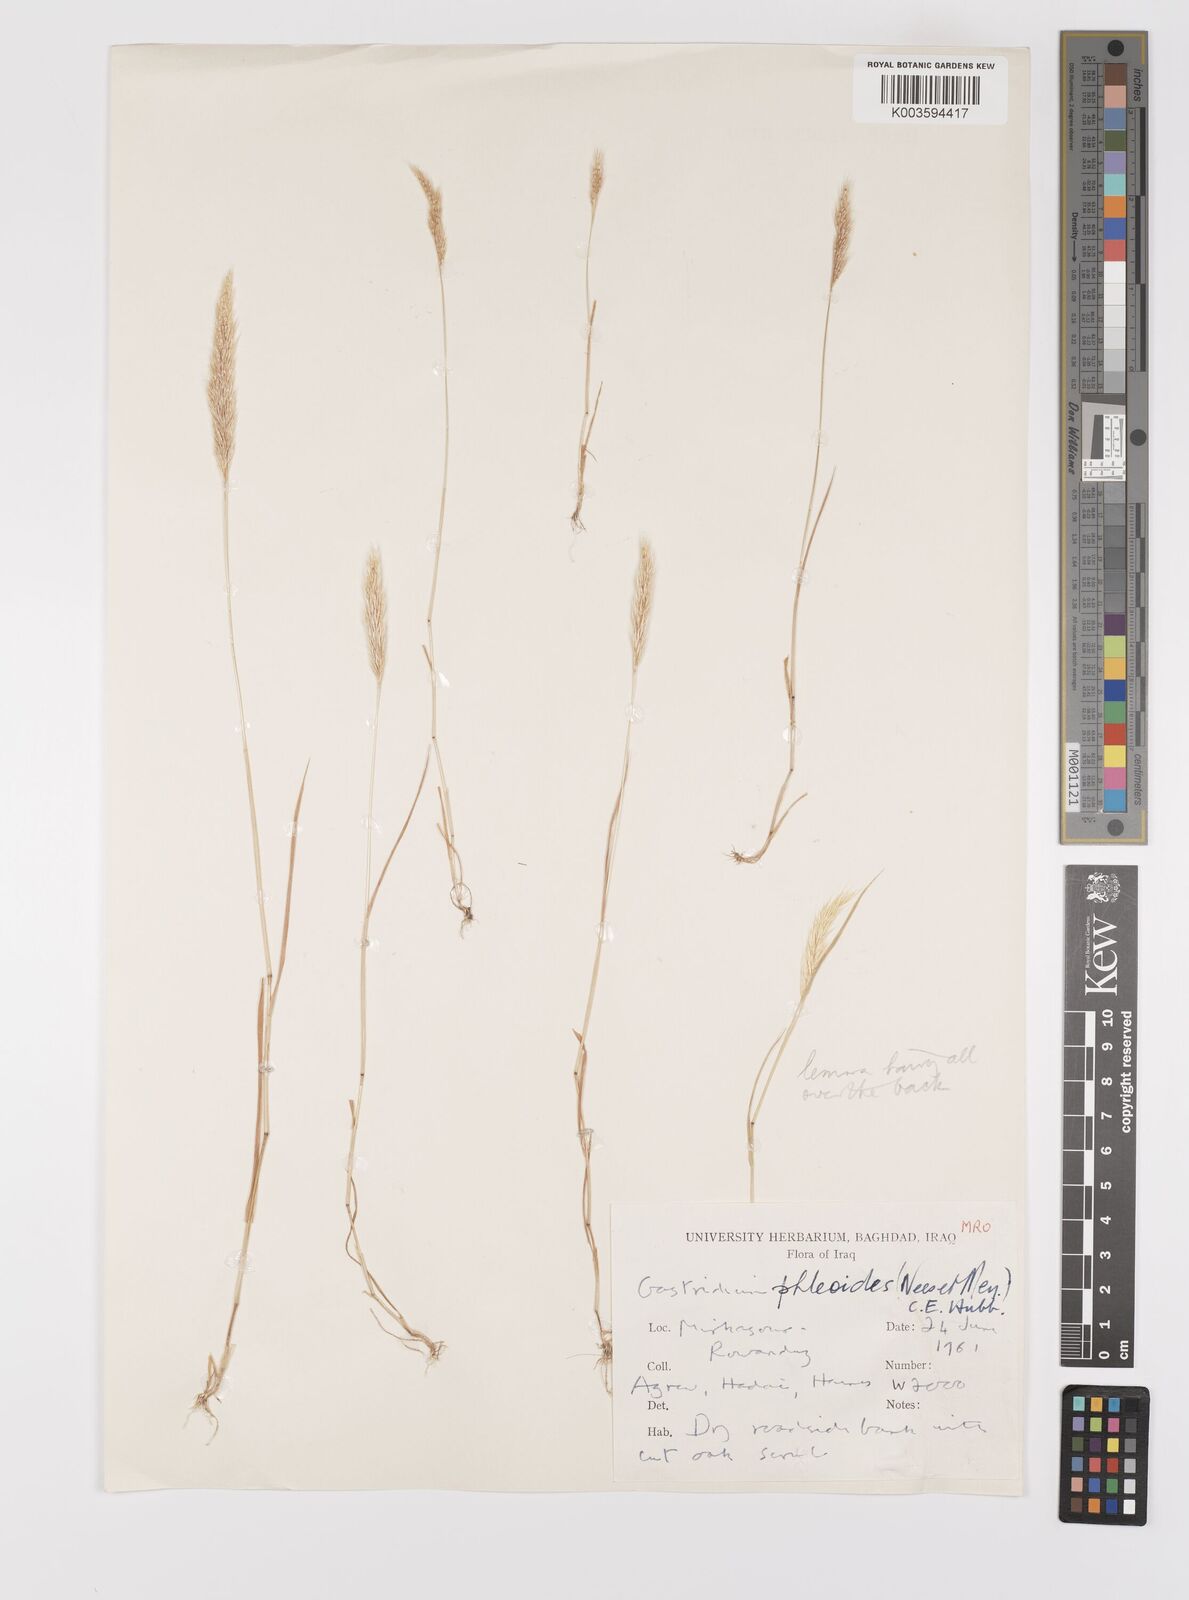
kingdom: Plantae
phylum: Tracheophyta
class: Liliopsida
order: Poales
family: Poaceae
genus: Gastridium
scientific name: Gastridium phleoides
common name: Nit grass
